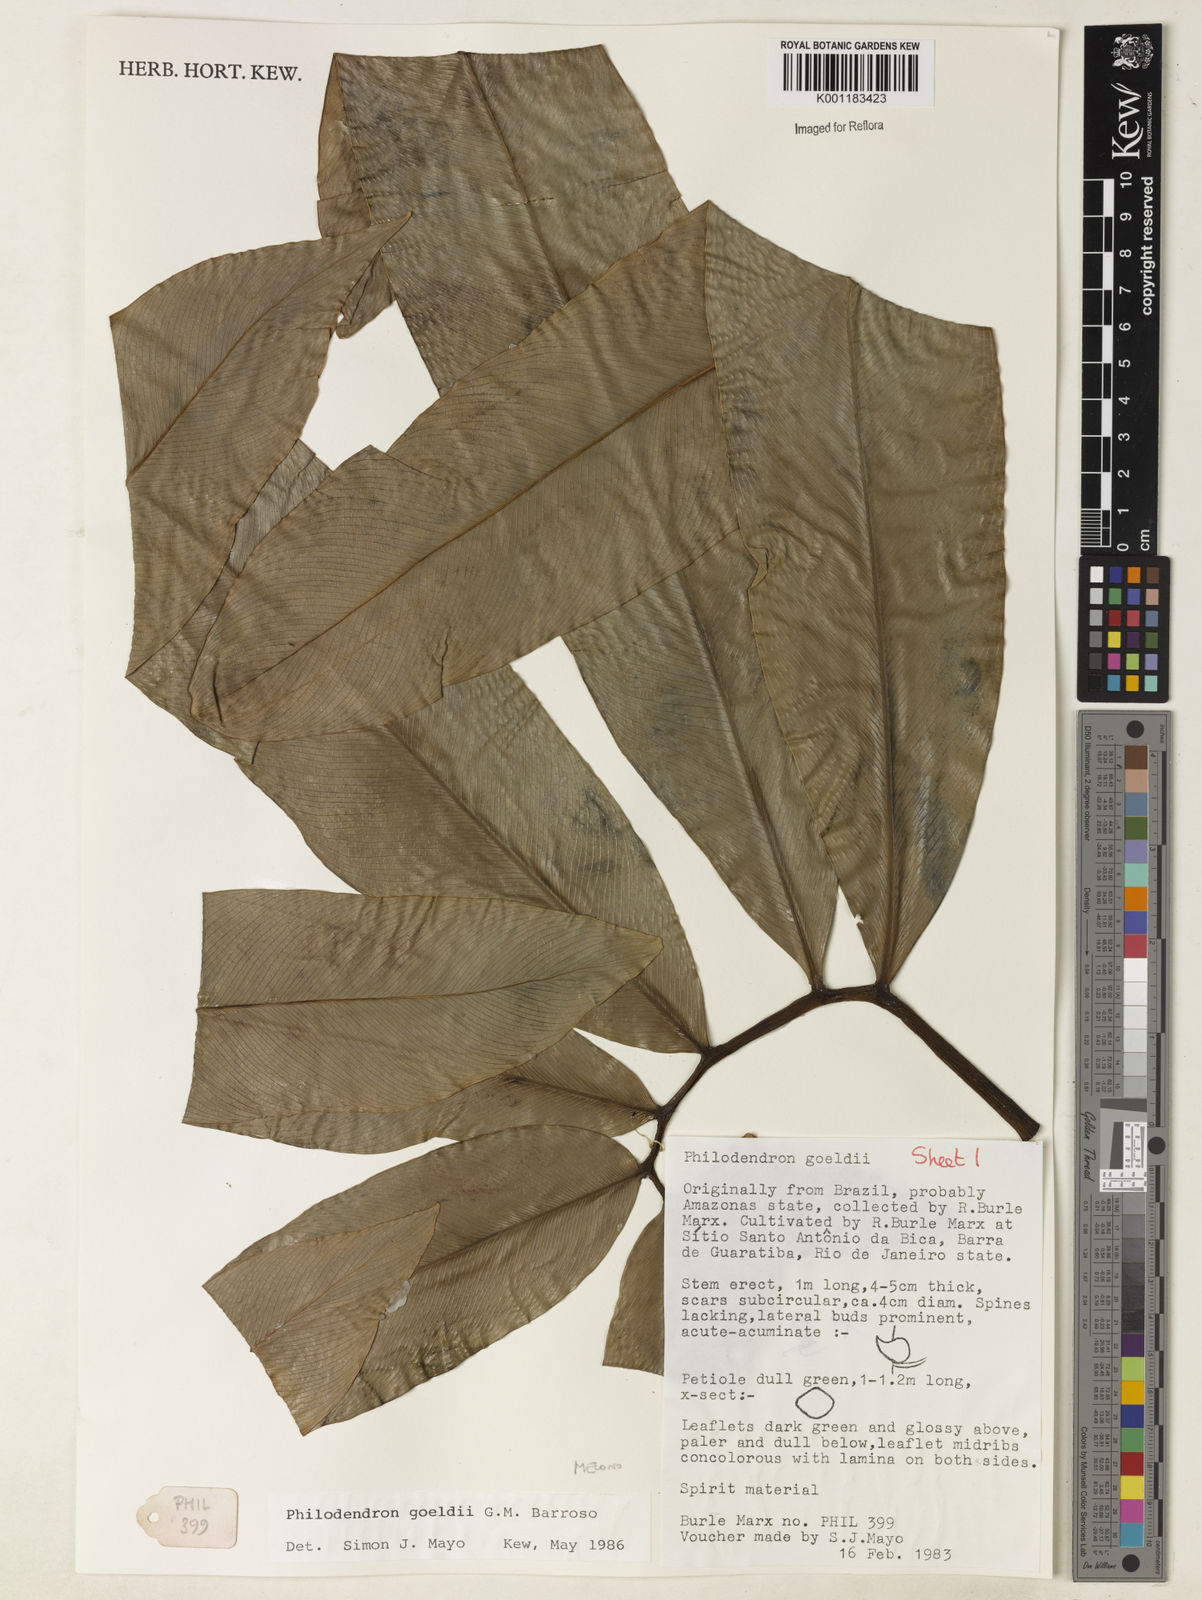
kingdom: Plantae
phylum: Tracheophyta
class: Liliopsida
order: Alismatales
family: Araceae
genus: Thaumatophyllum
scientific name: Thaumatophyllum spruceanum
